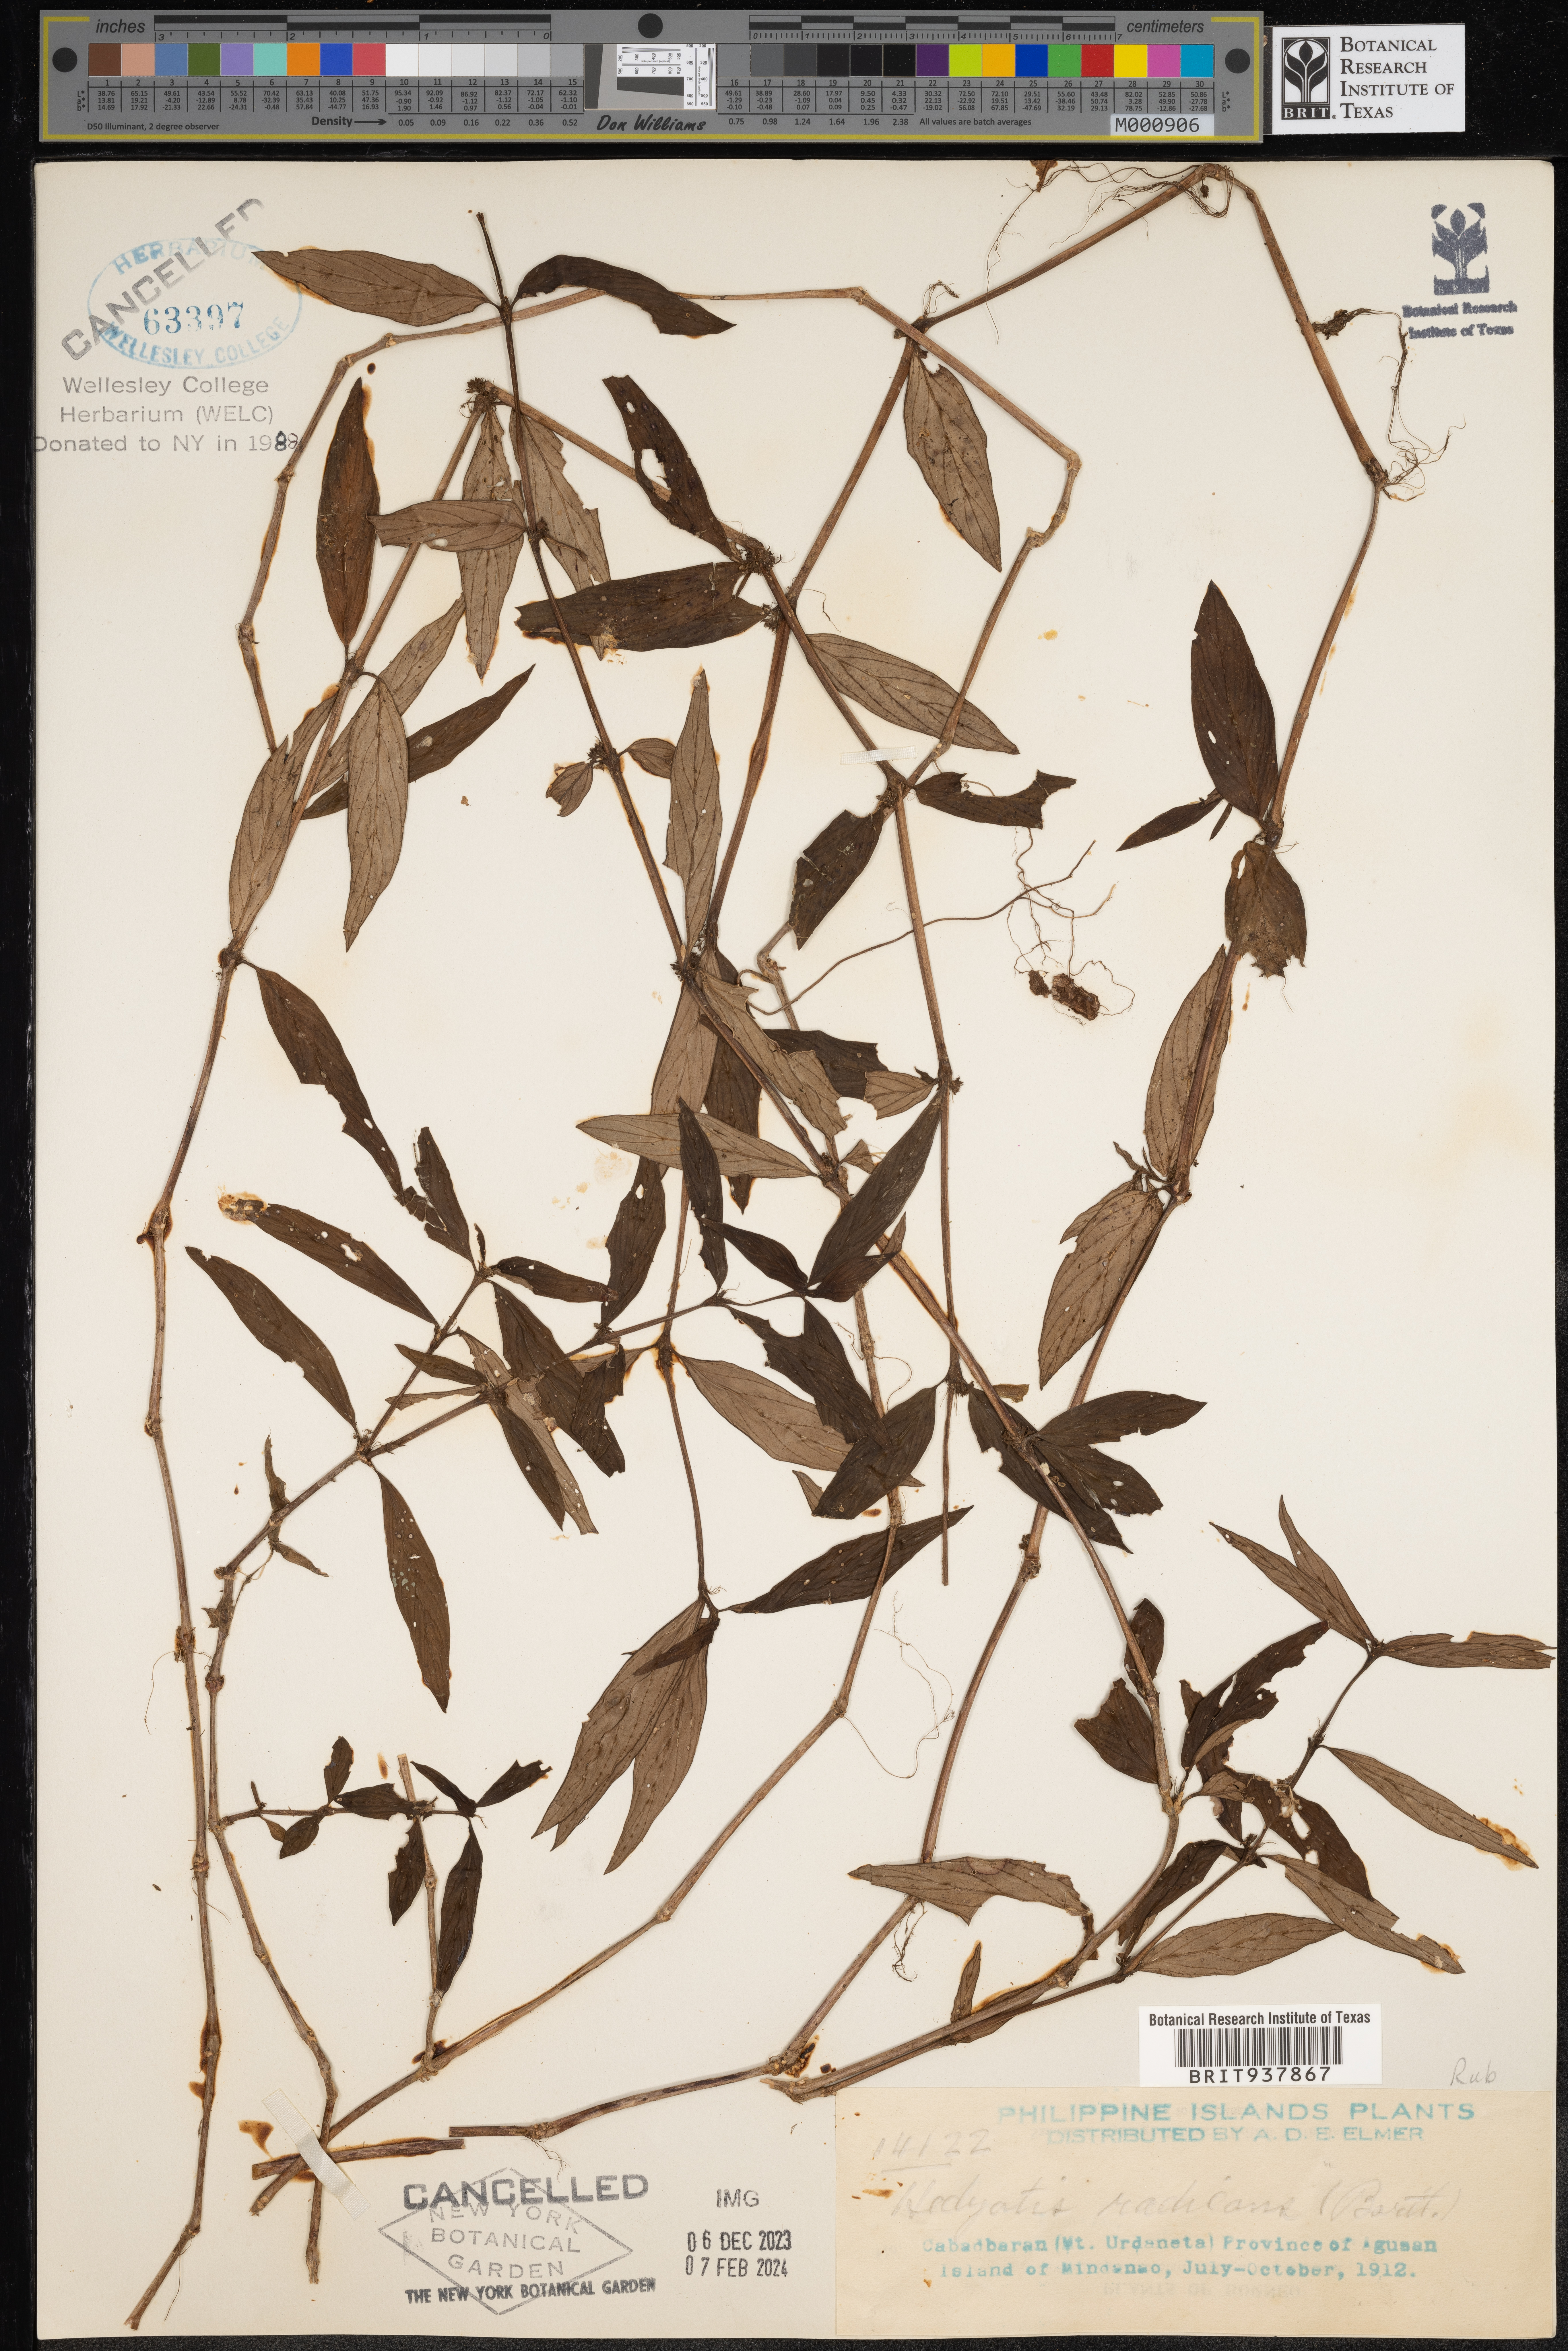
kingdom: Plantae
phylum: Tracheophyta
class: Magnoliopsida
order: Gentianales
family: Rubiaceae
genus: Hedyotis
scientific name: Hedyotis
